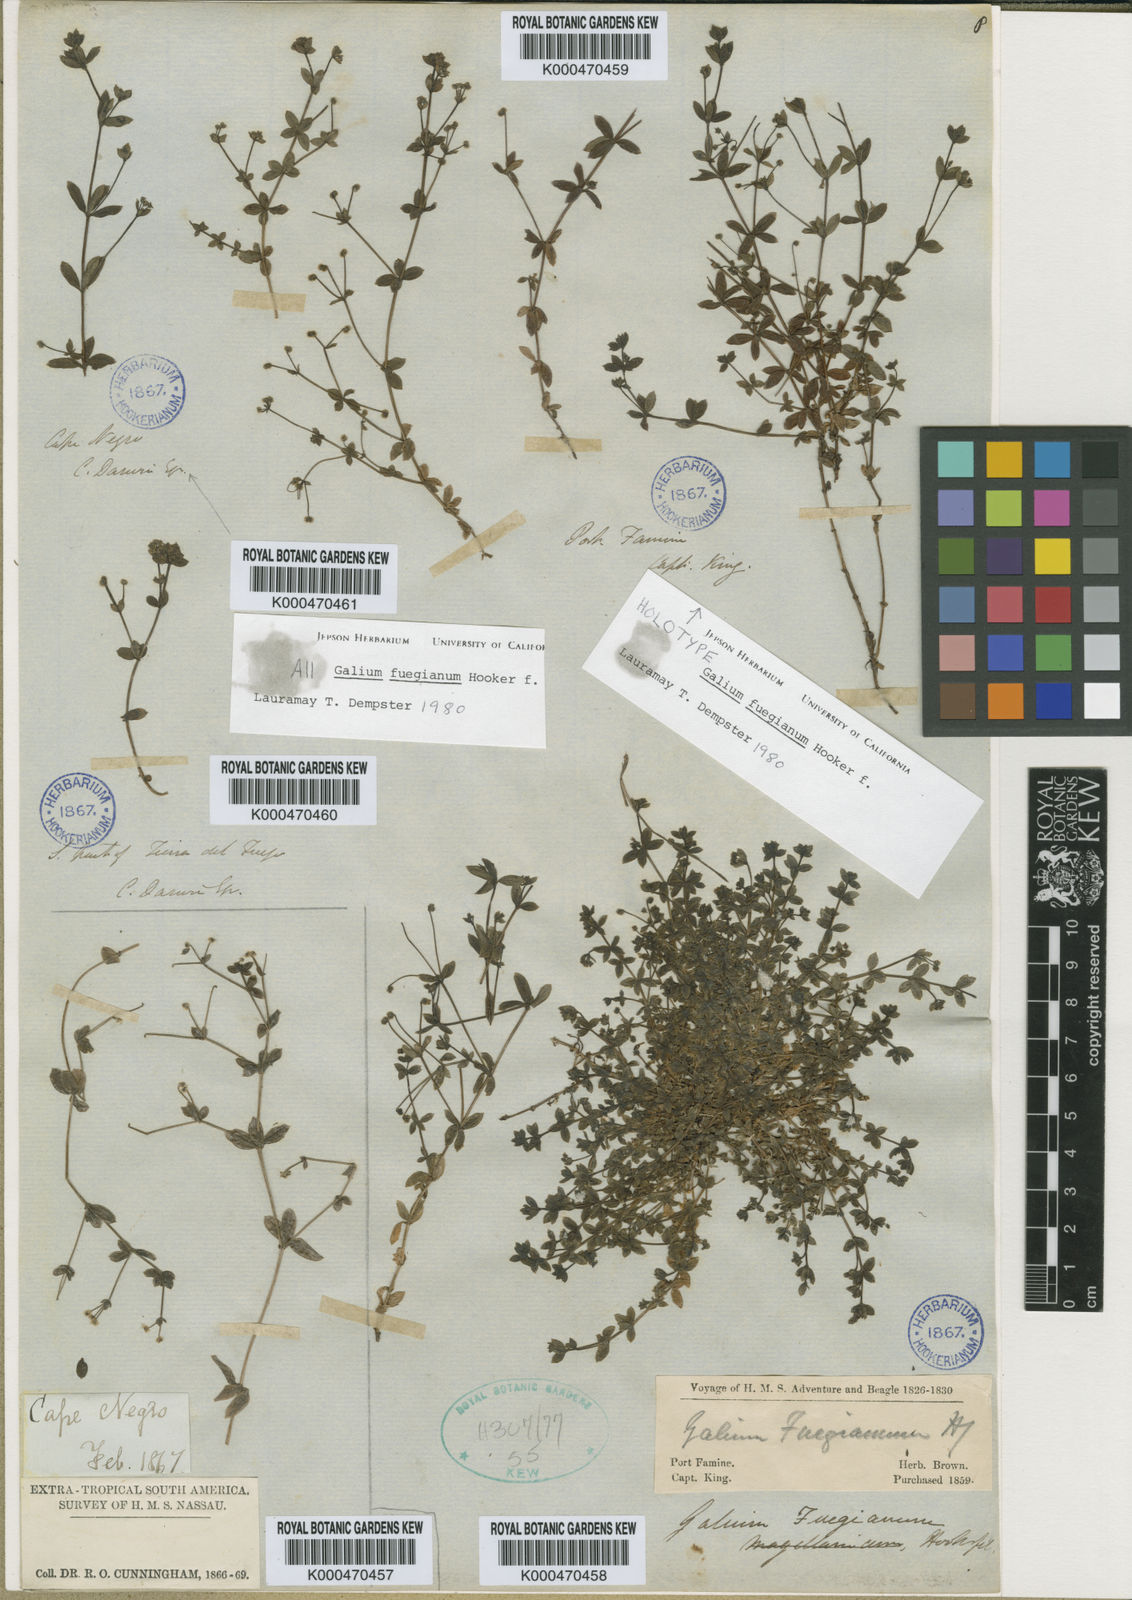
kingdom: Plantae
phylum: Tracheophyta
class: Magnoliopsida
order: Gentianales
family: Rubiaceae
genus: Galium
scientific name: Galium fuegianum
